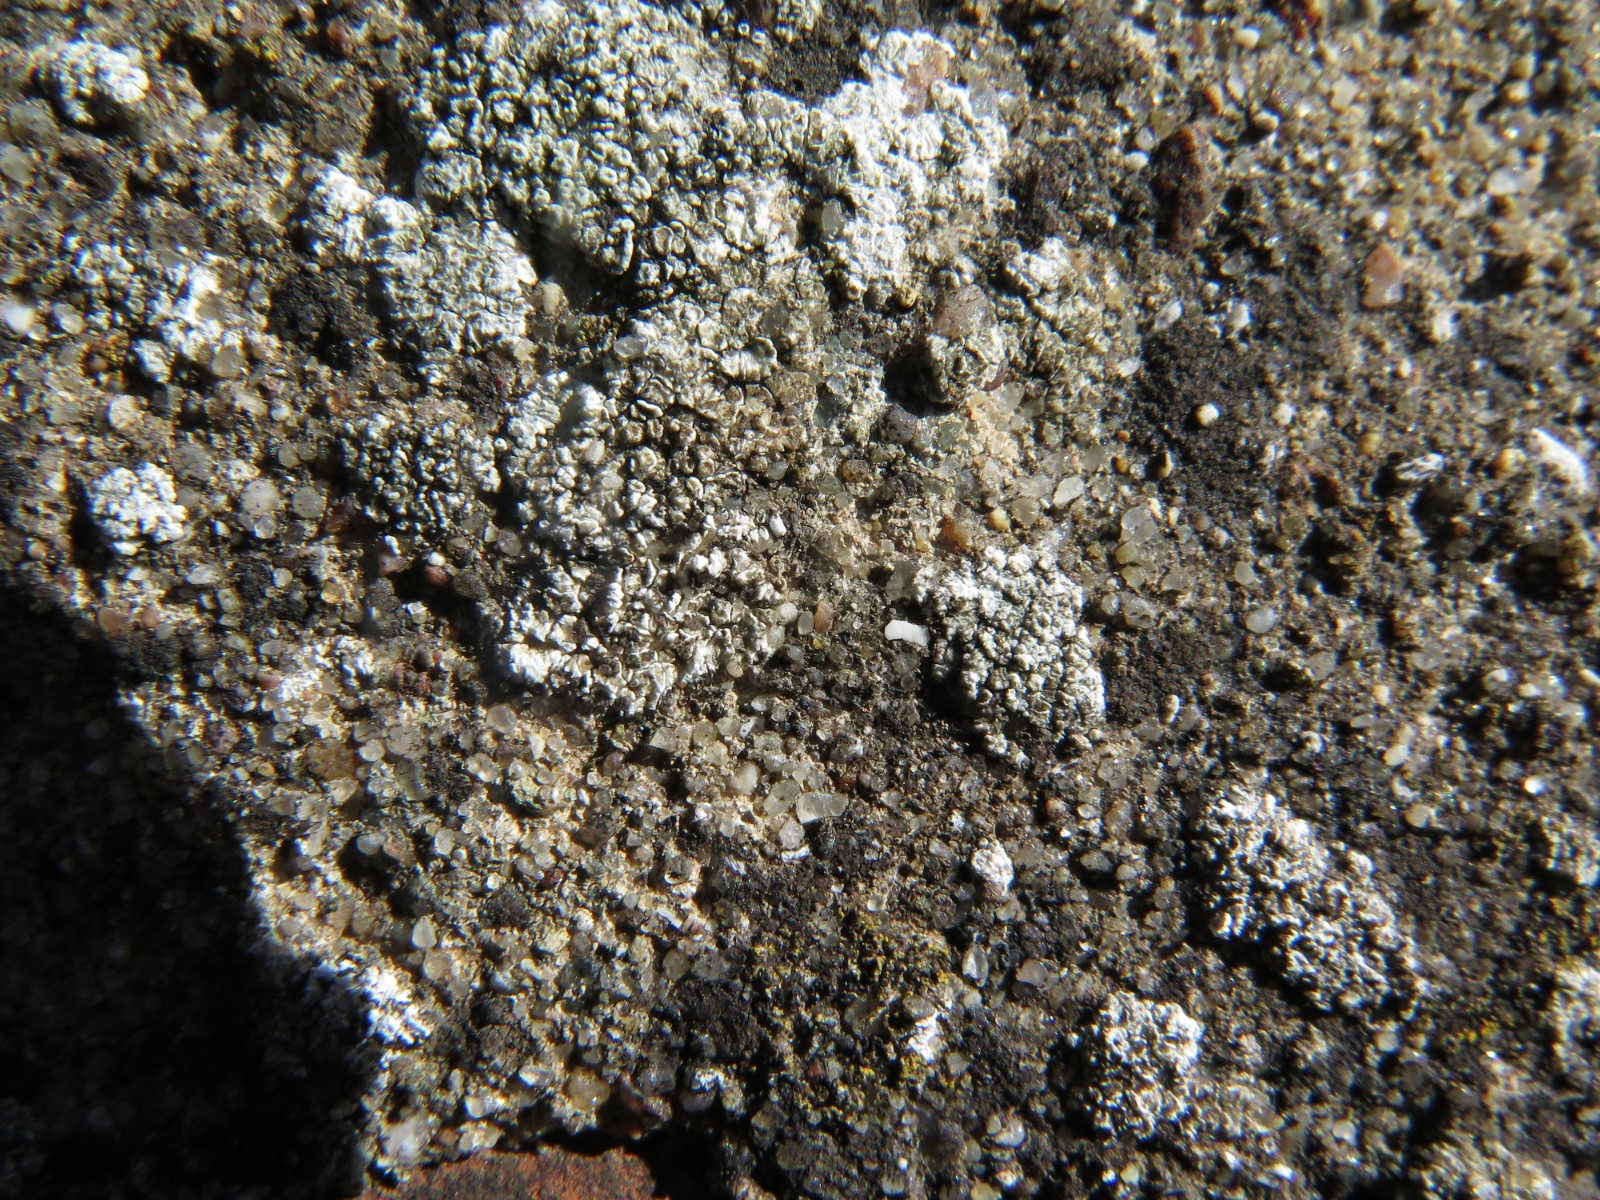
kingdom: Fungi
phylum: Ascomycota
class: Lecanoromycetes
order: Lecanorales
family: Lecanoraceae
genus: Polyozosia
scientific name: Polyozosia albescens
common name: cement-kantskivelav
